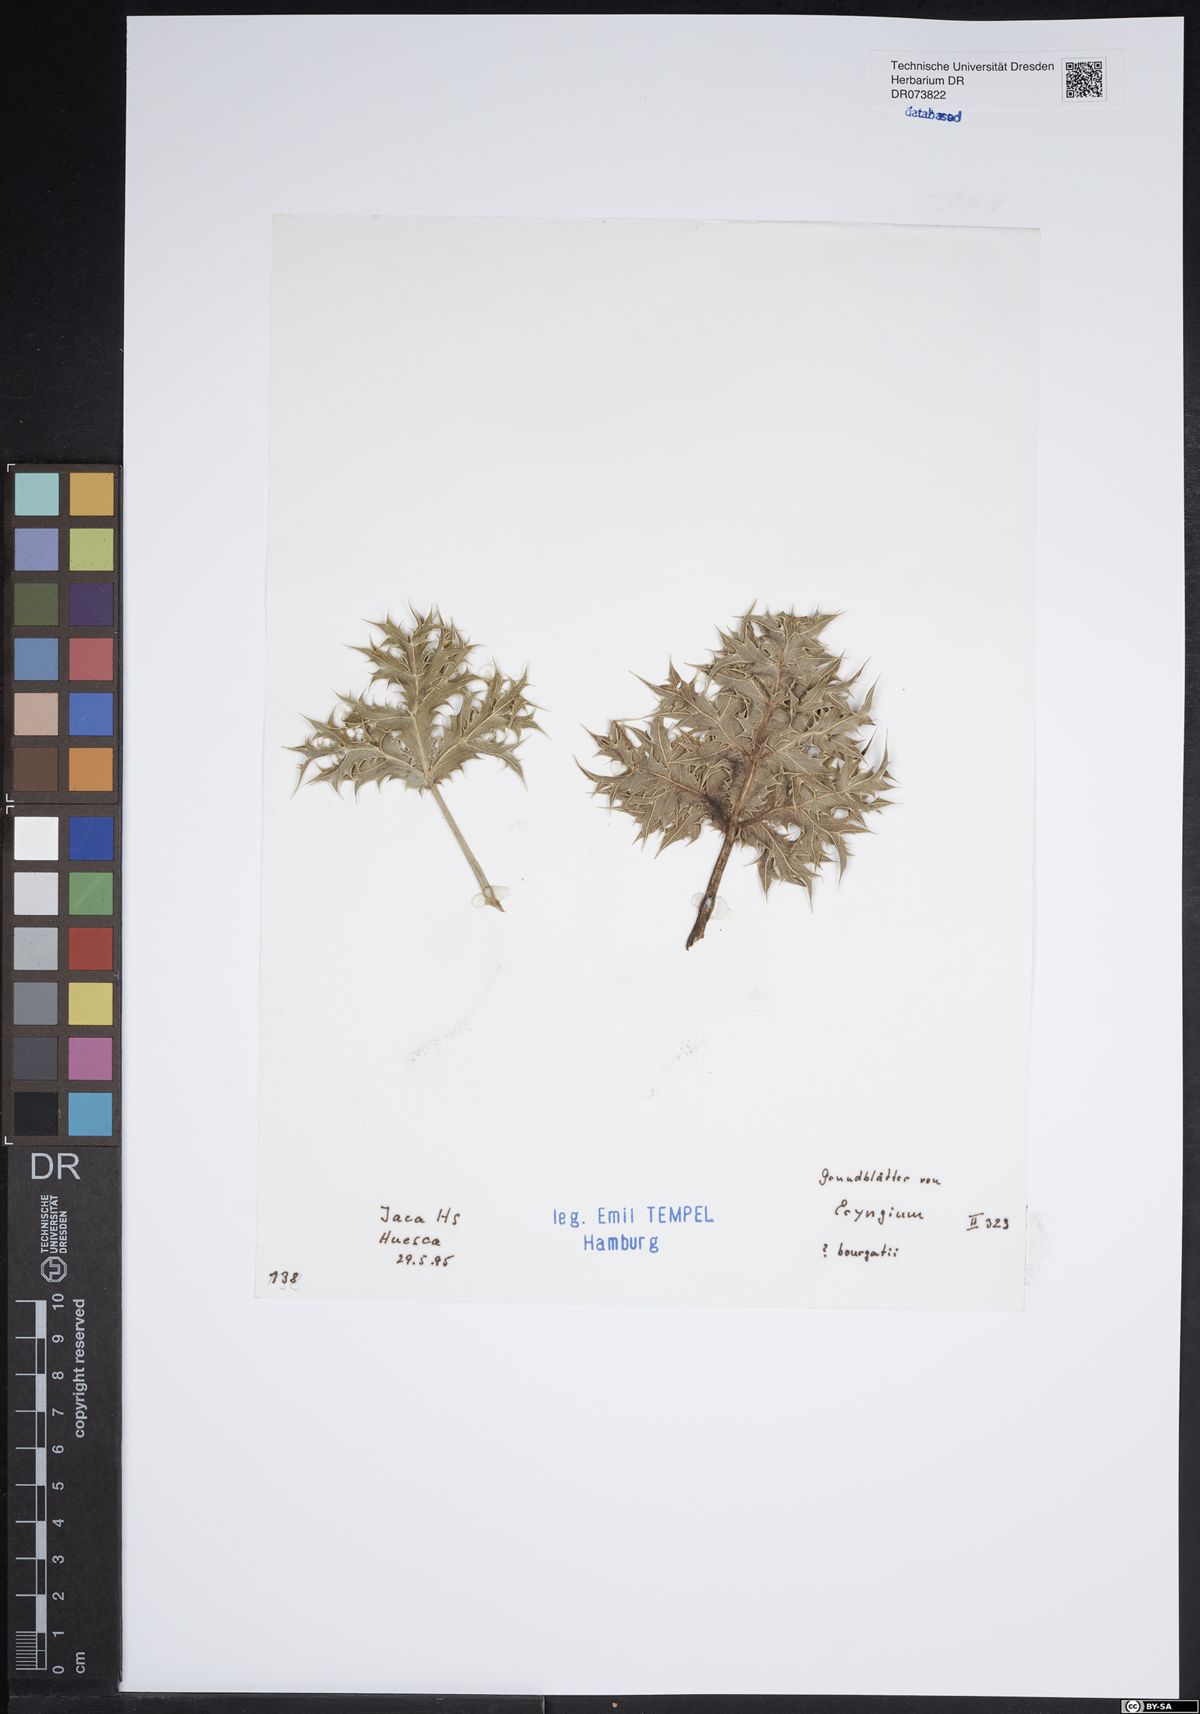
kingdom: Plantae
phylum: Tracheophyta
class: Magnoliopsida
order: Apiales
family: Apiaceae
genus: Eryngium
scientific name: Eryngium bourgatii
